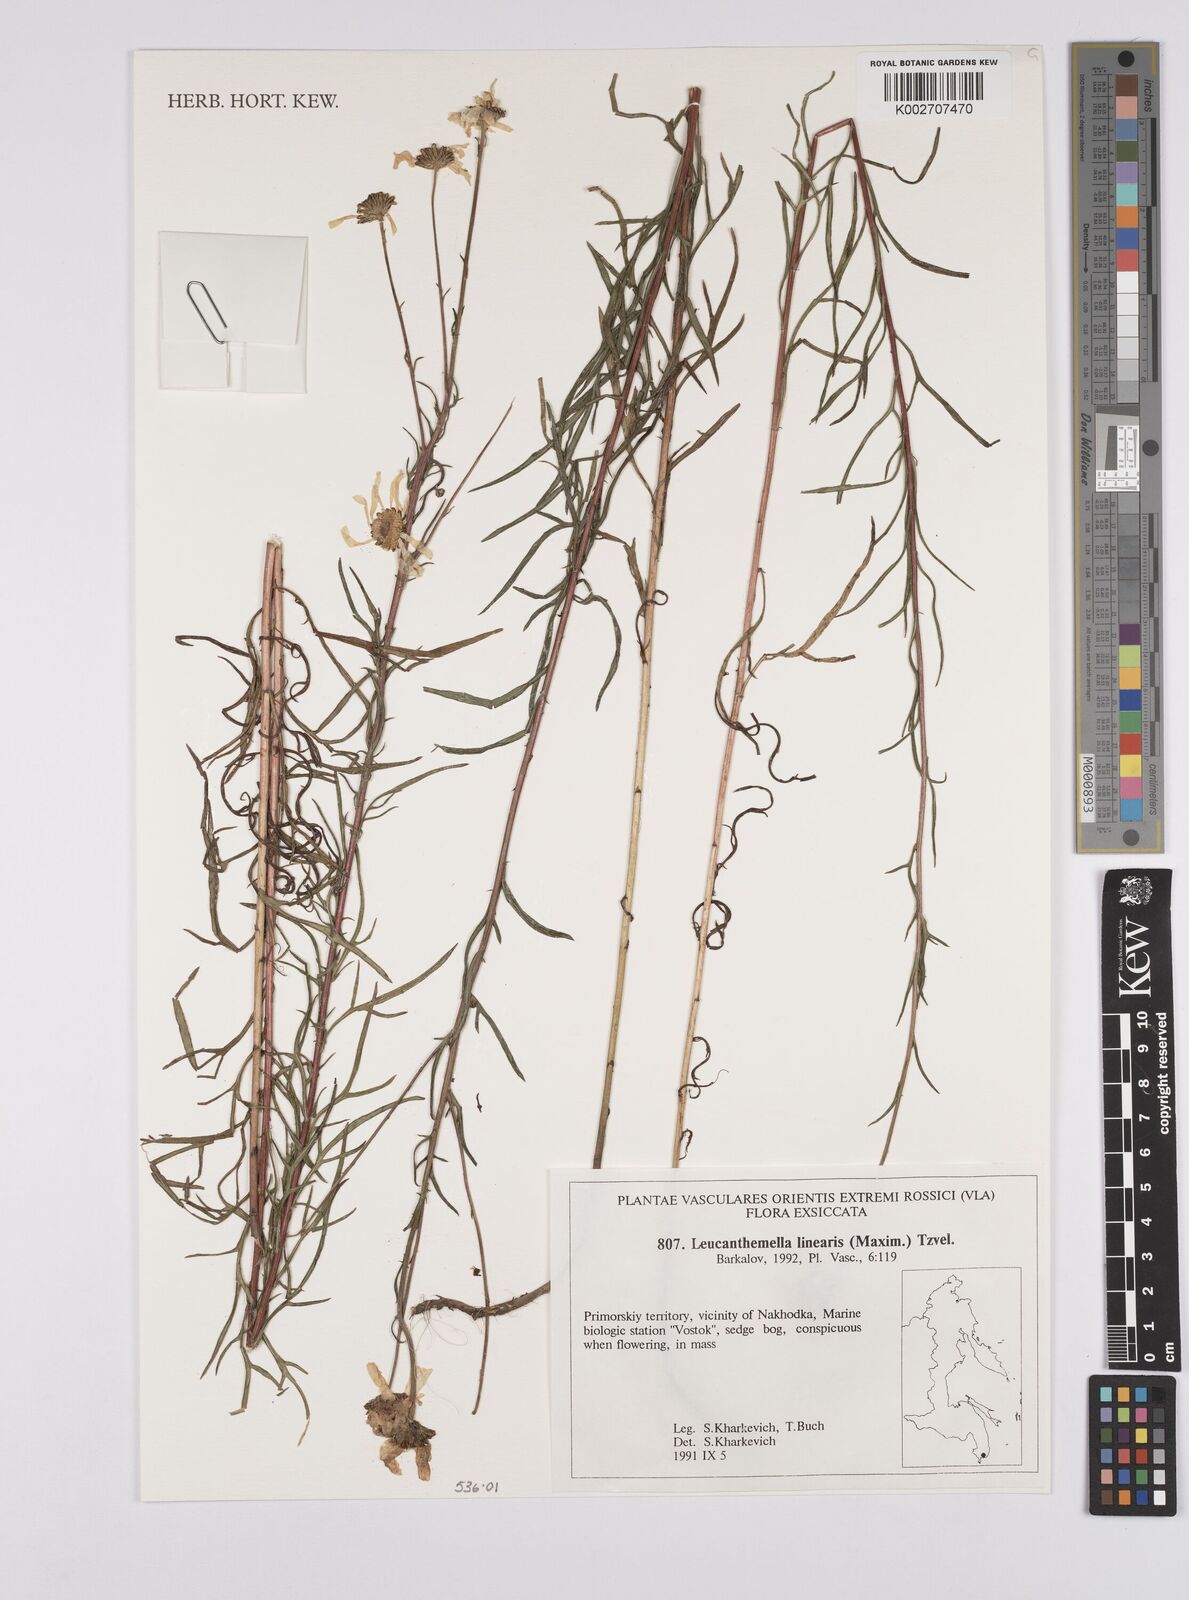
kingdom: Plantae
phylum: Tracheophyta
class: Magnoliopsida
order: Asterales
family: Asteraceae
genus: Leucanthemella
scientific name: Leucanthemella linearis
